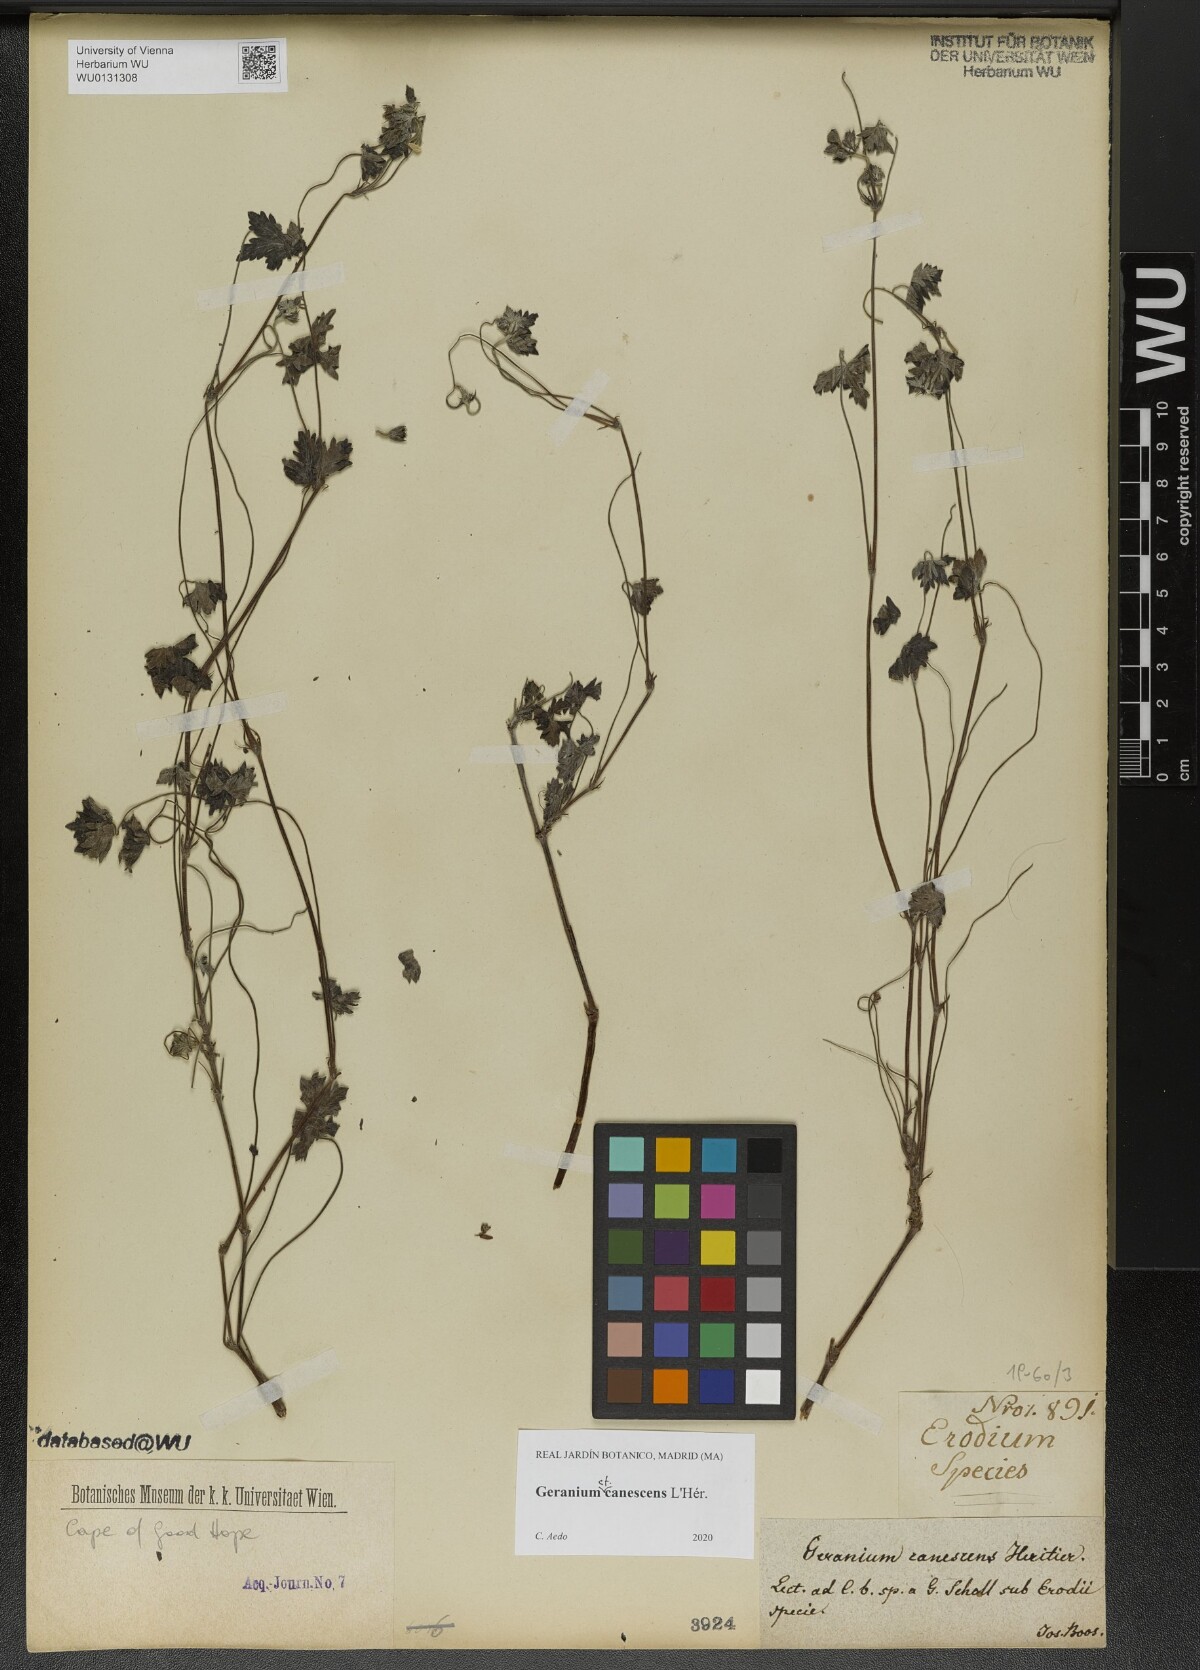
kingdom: Plantae
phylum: Tracheophyta
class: Magnoliopsida
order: Geraniales
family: Geraniaceae
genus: Geranium
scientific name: Geranium canescens
